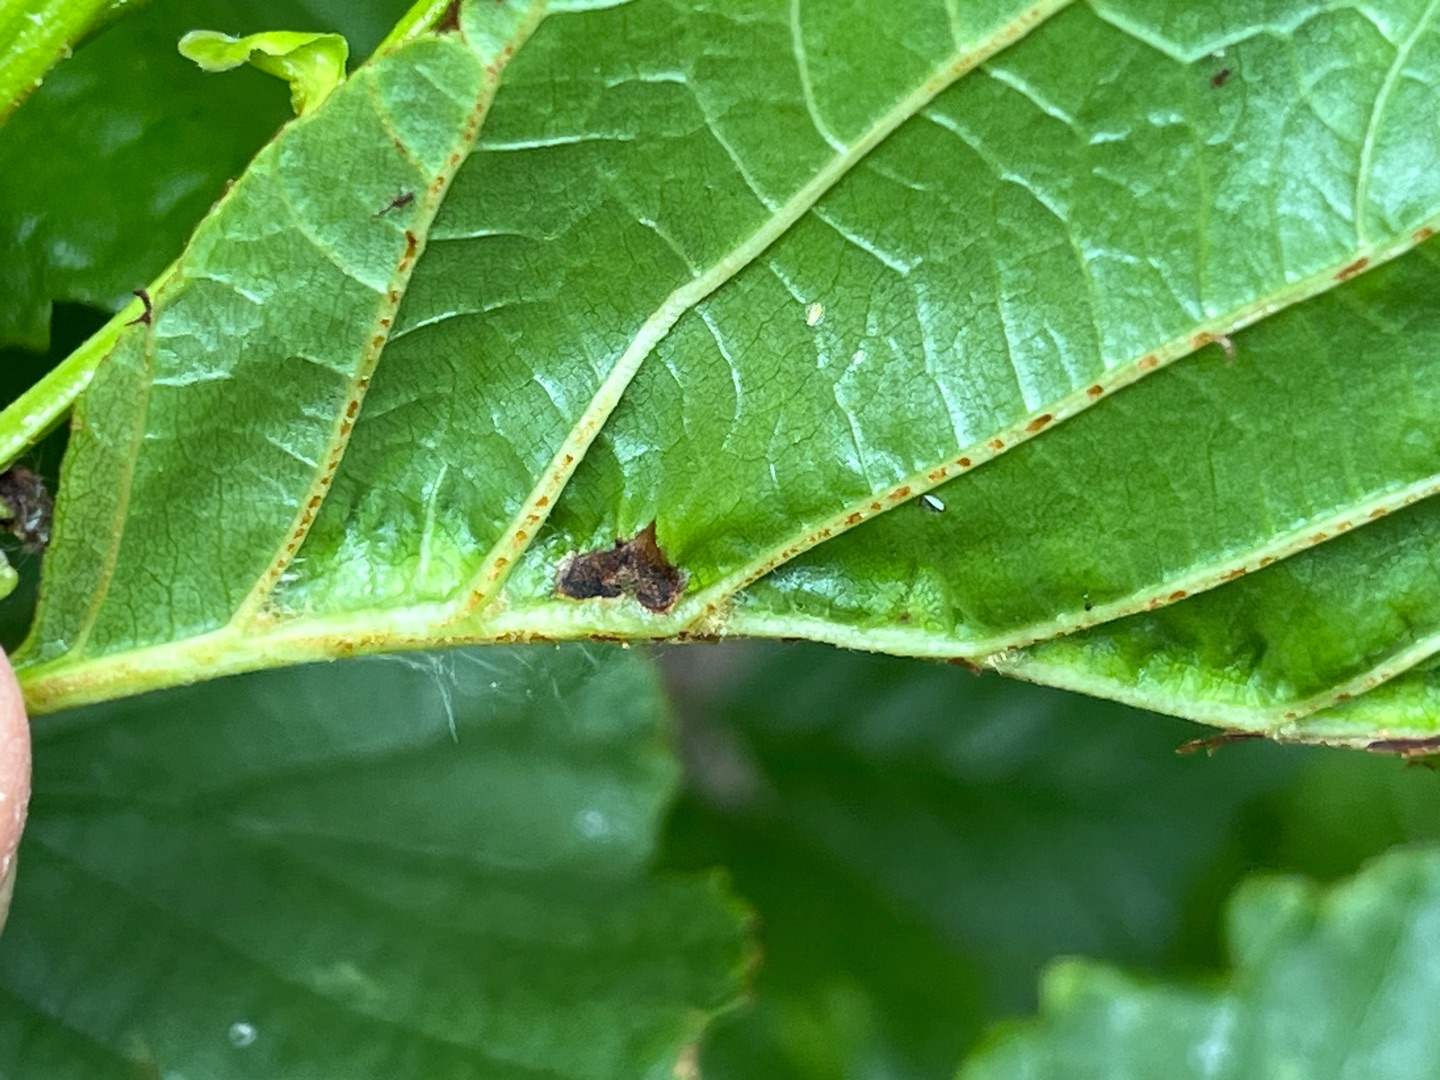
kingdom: Animalia
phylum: Arthropoda
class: Insecta
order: Diptera
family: Cecidomyiidae
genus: Dasineura
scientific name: Dasineura tortilis
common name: Ellebladgalmyg
